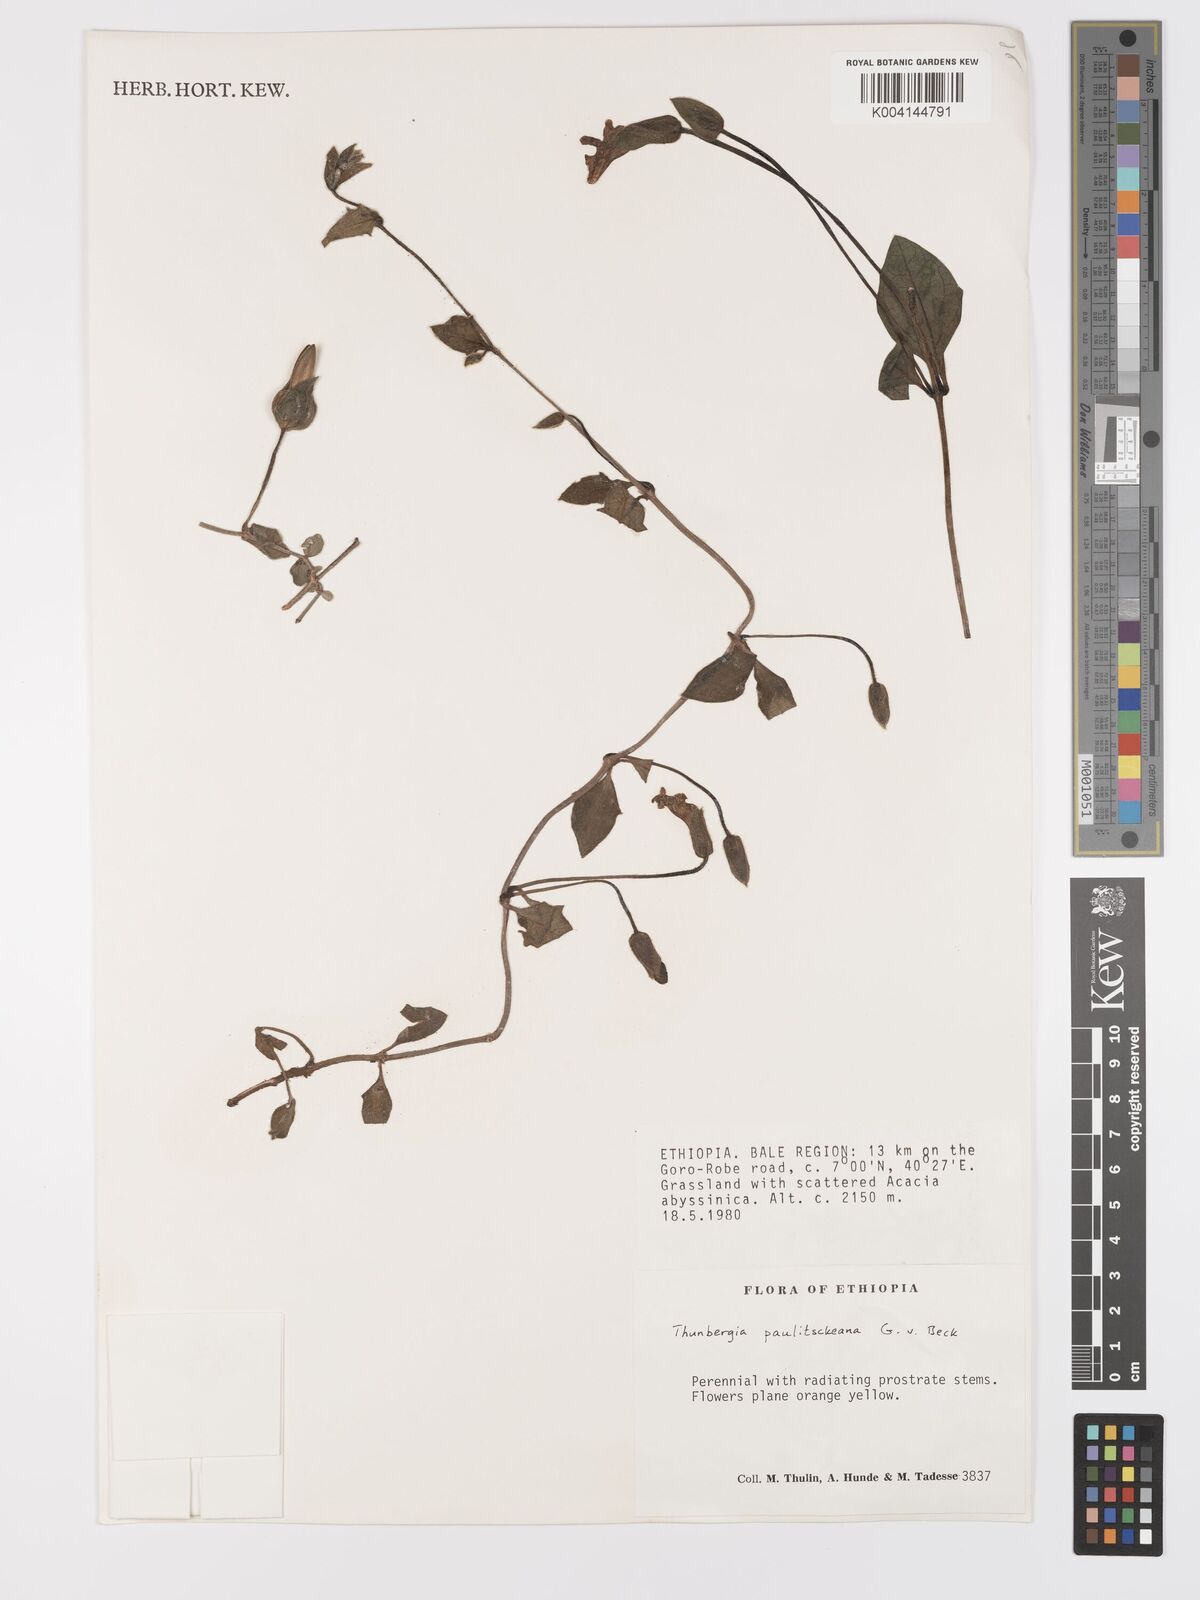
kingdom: Plantae
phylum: Tracheophyta
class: Magnoliopsida
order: Lamiales
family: Acanthaceae
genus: Thunbergia
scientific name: Thunbergia paulitschkeana
